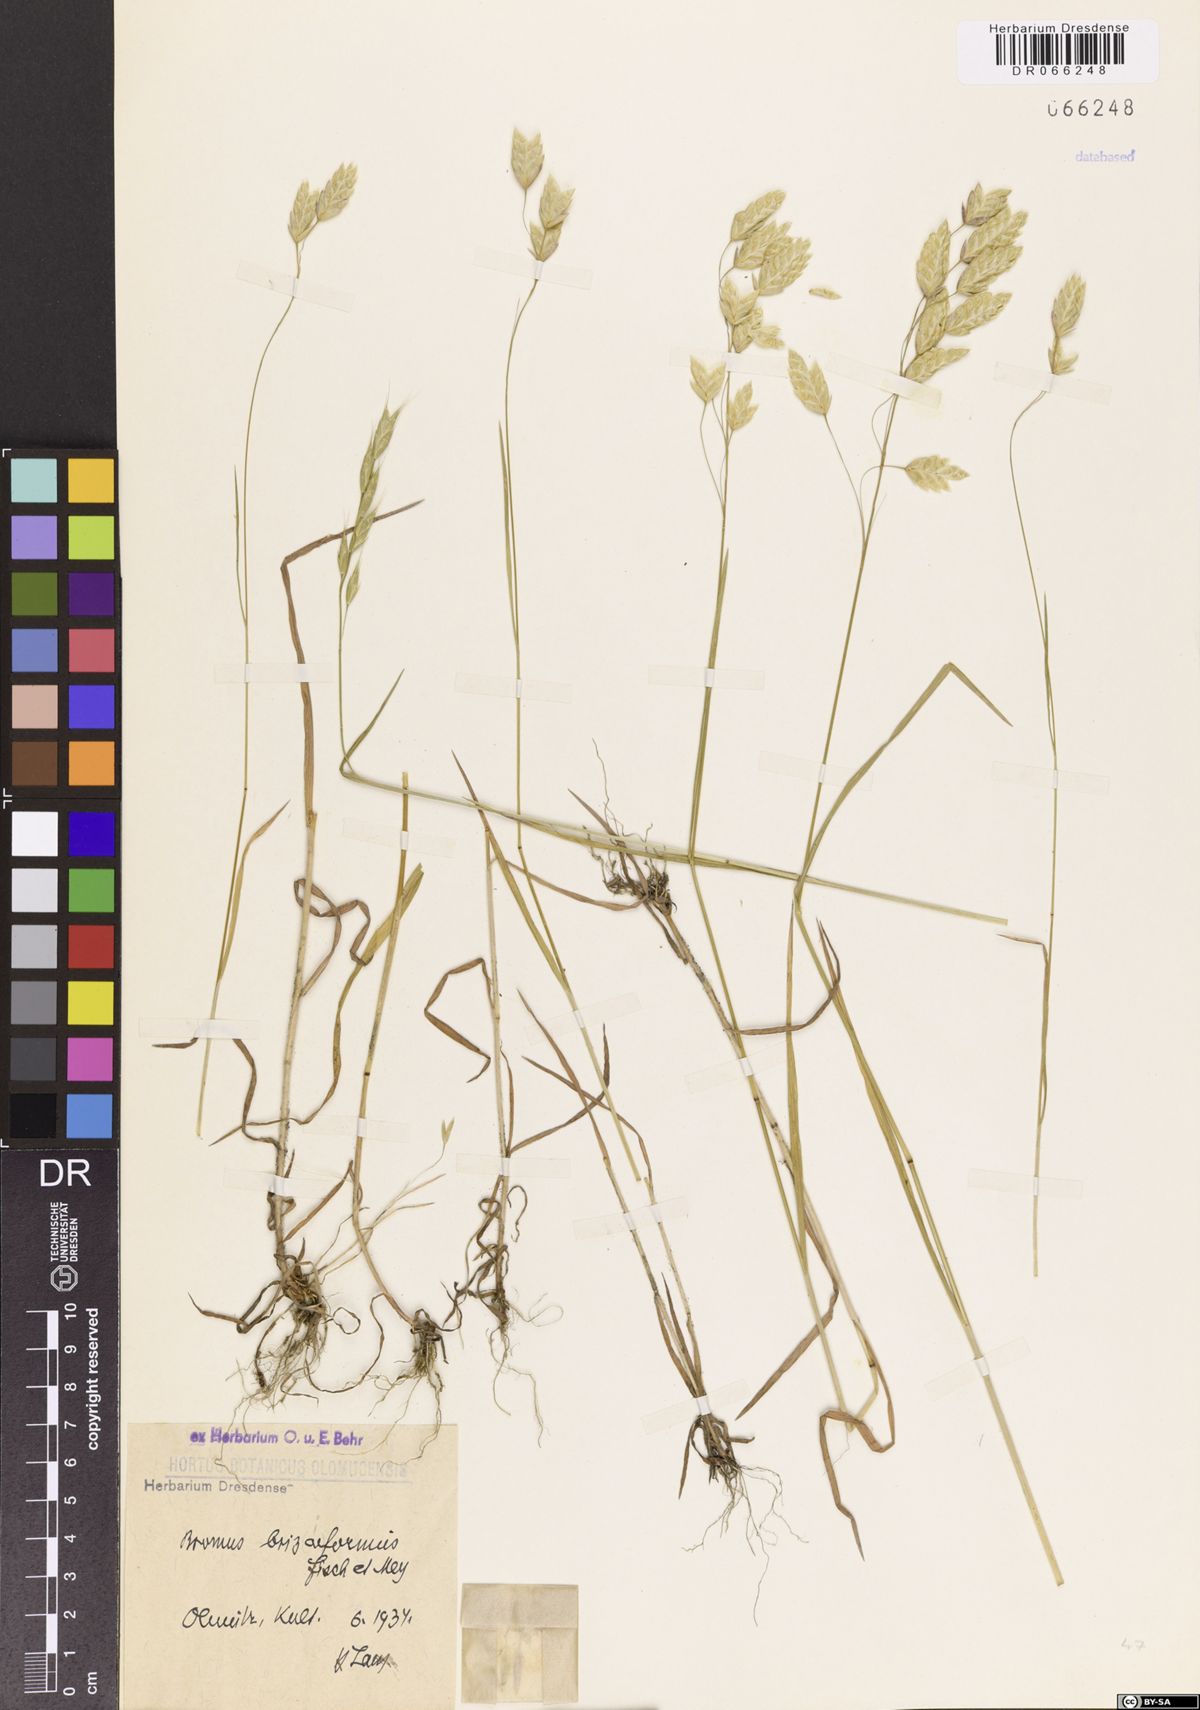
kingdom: Plantae
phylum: Tracheophyta
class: Liliopsida
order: Poales
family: Poaceae
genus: Bromus
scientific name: Bromus briziformis
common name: Rattlesnake brome
